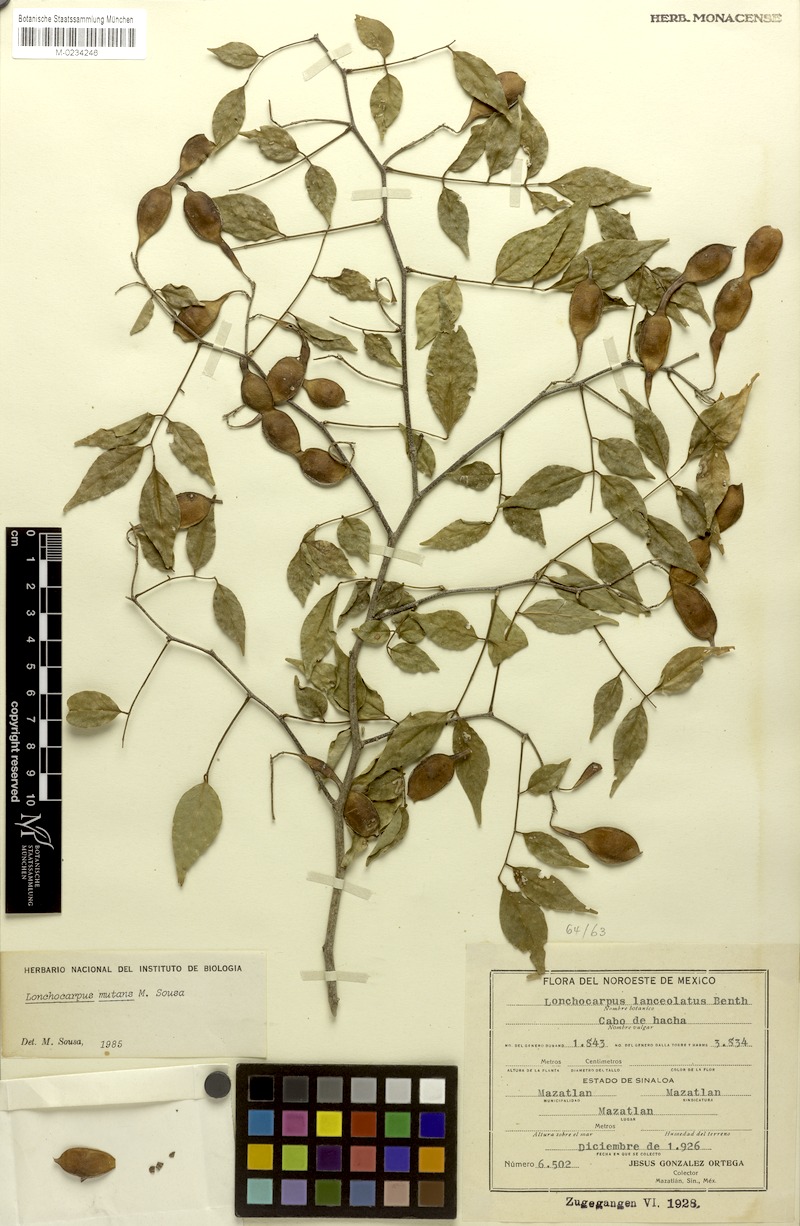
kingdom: Plantae
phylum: Tracheophyta
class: Magnoliopsida
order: Fabales
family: Fabaceae
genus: Lonchocarpus
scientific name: Lonchocarpus mutans
